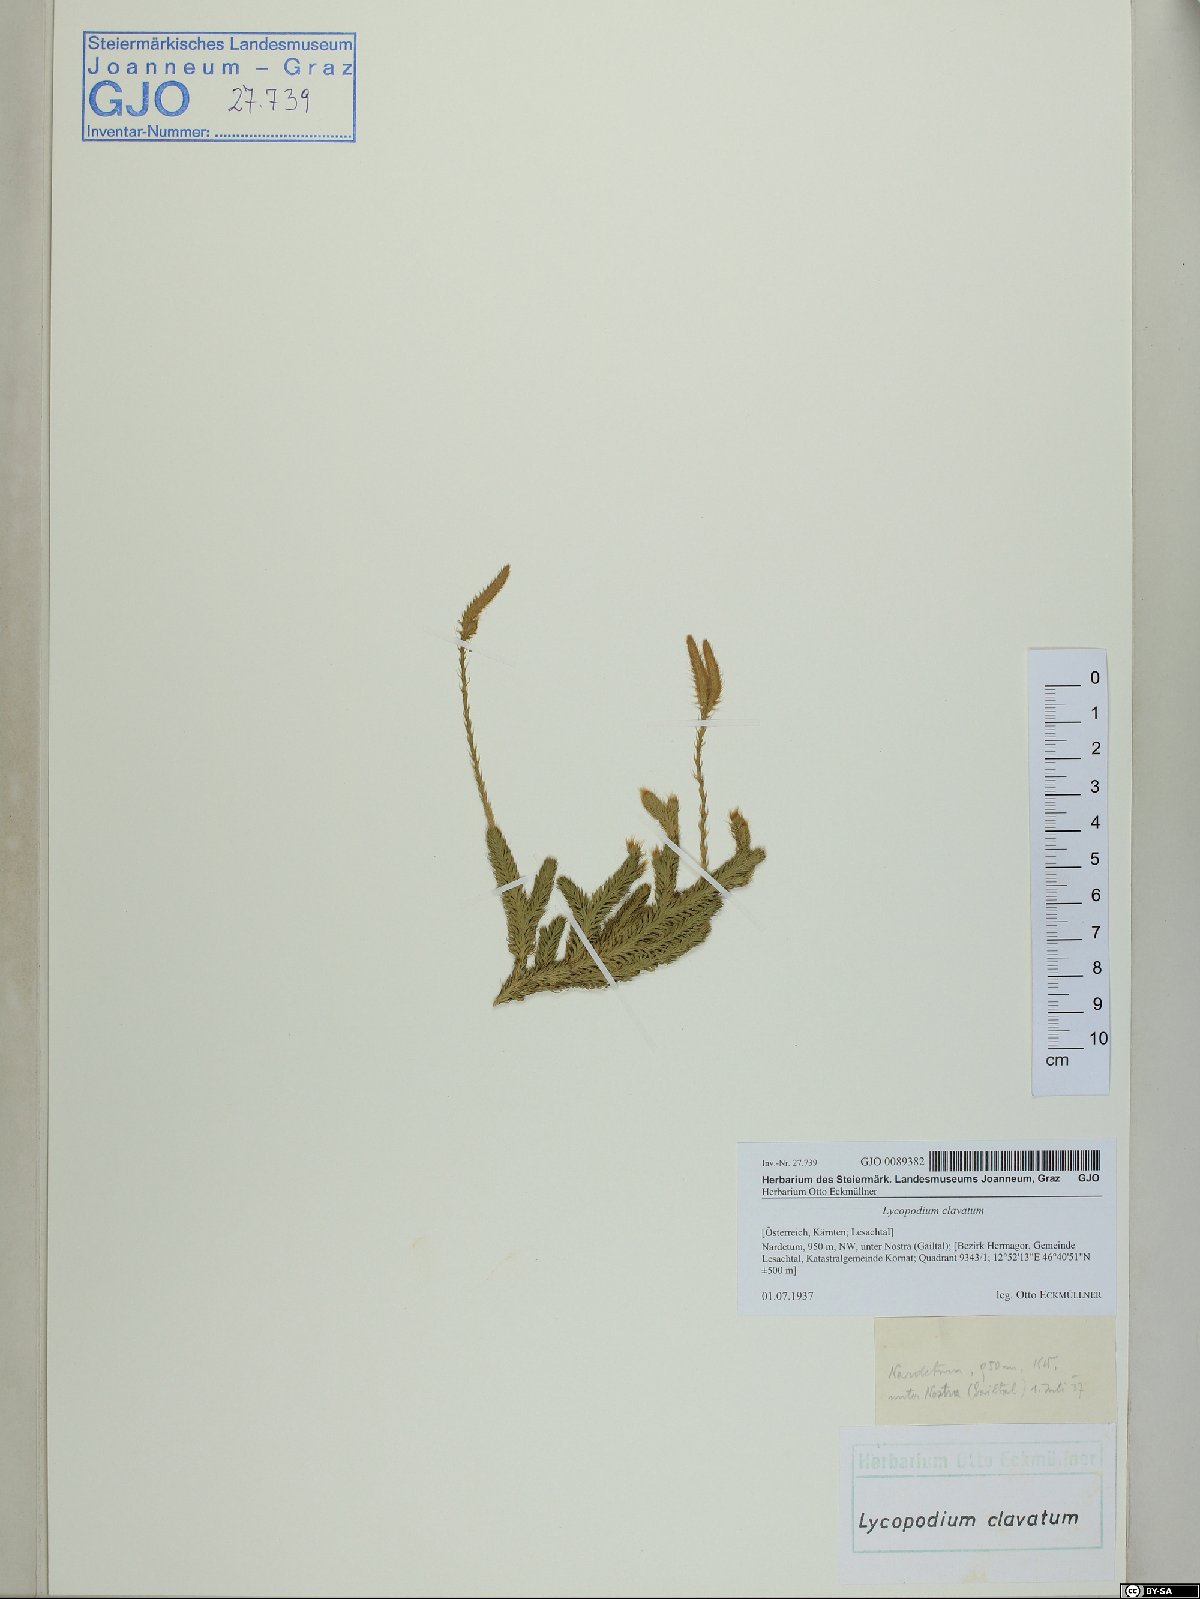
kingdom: Plantae
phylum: Tracheophyta
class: Lycopodiopsida
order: Lycopodiales
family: Lycopodiaceae
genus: Lycopodium
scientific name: Lycopodium clavatum
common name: Stag's-horn clubmoss
